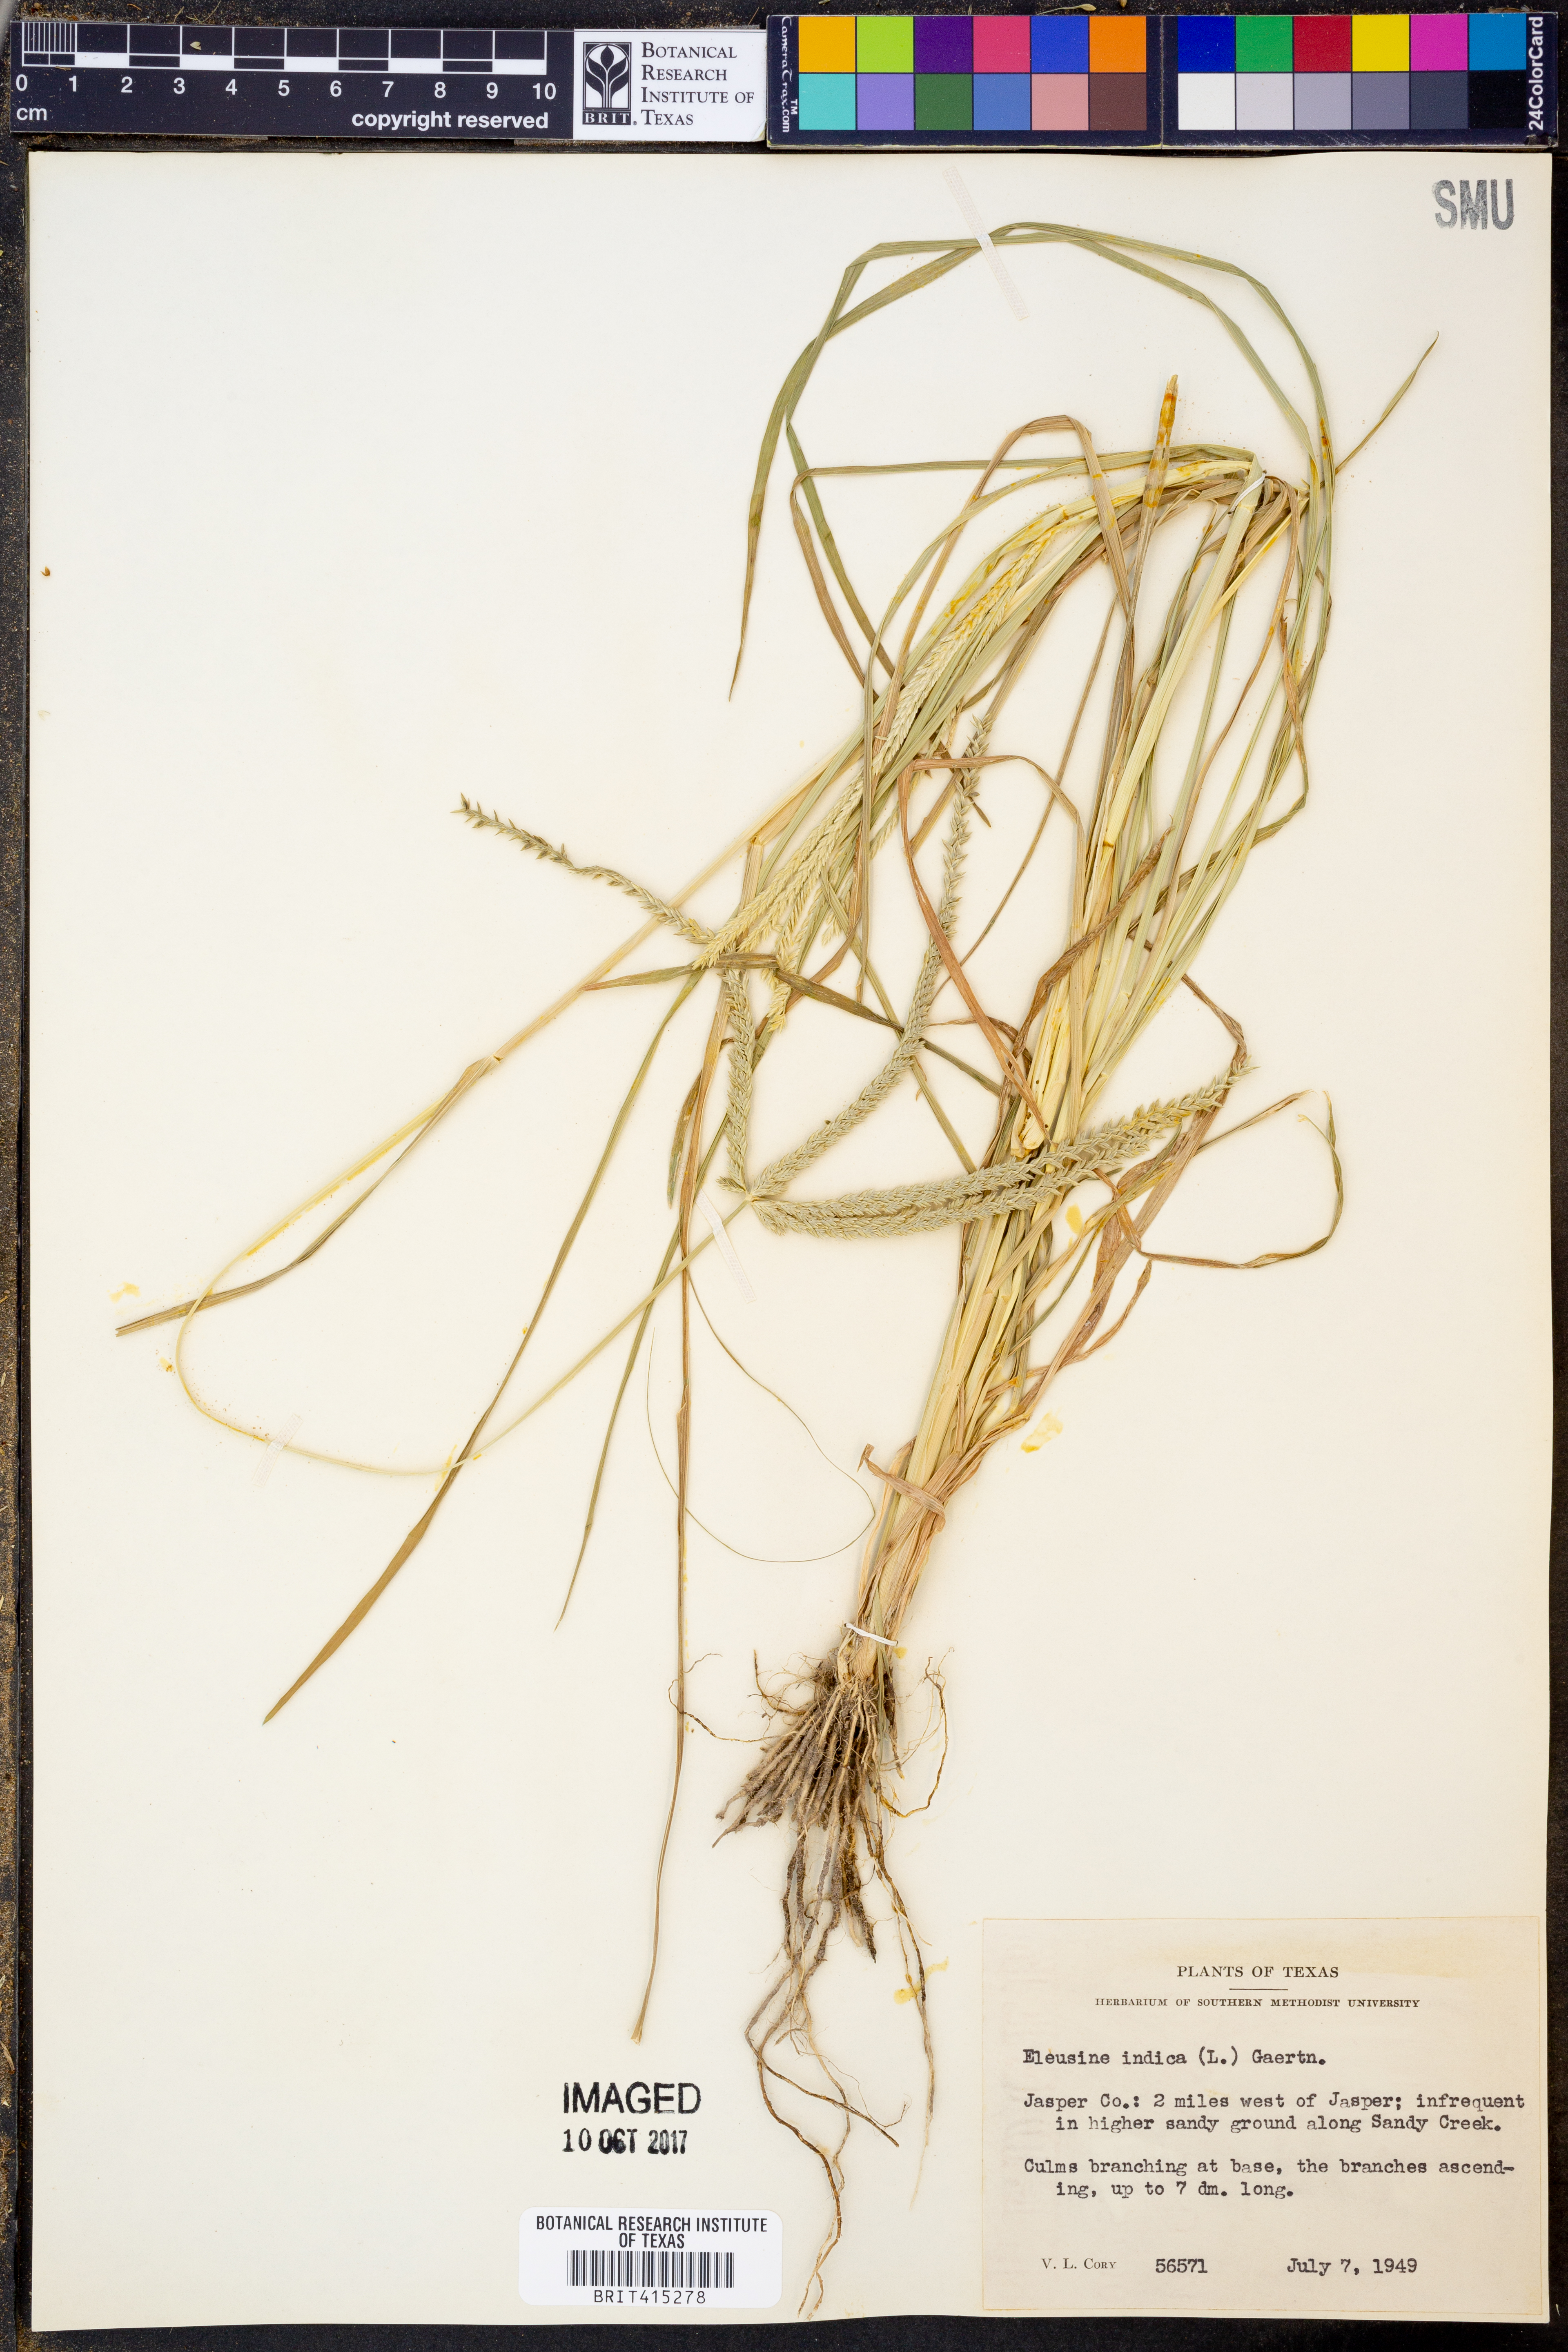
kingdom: Plantae
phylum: Tracheophyta
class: Liliopsida
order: Poales
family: Poaceae
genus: Eleusine
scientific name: Eleusine indica
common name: Yard-grass
